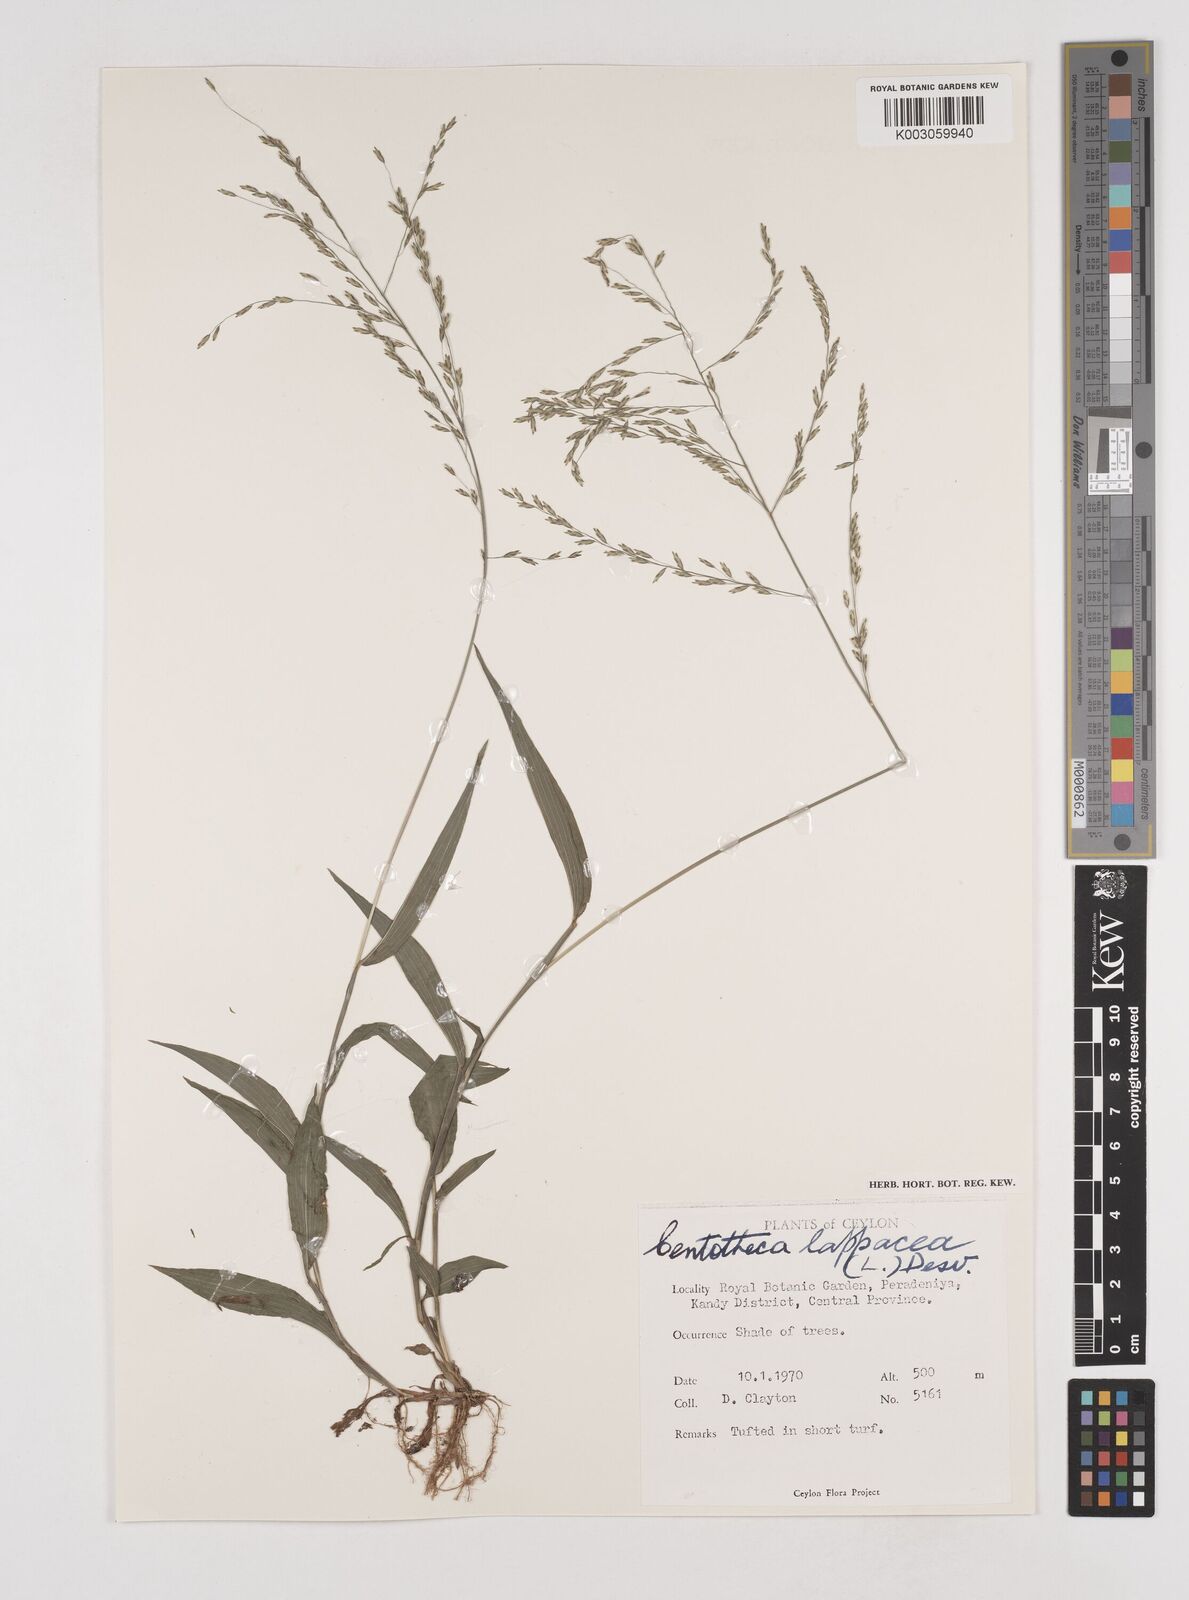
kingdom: Plantae
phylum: Tracheophyta
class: Liliopsida
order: Poales
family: Poaceae
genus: Centotheca
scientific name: Centotheca lappacea
